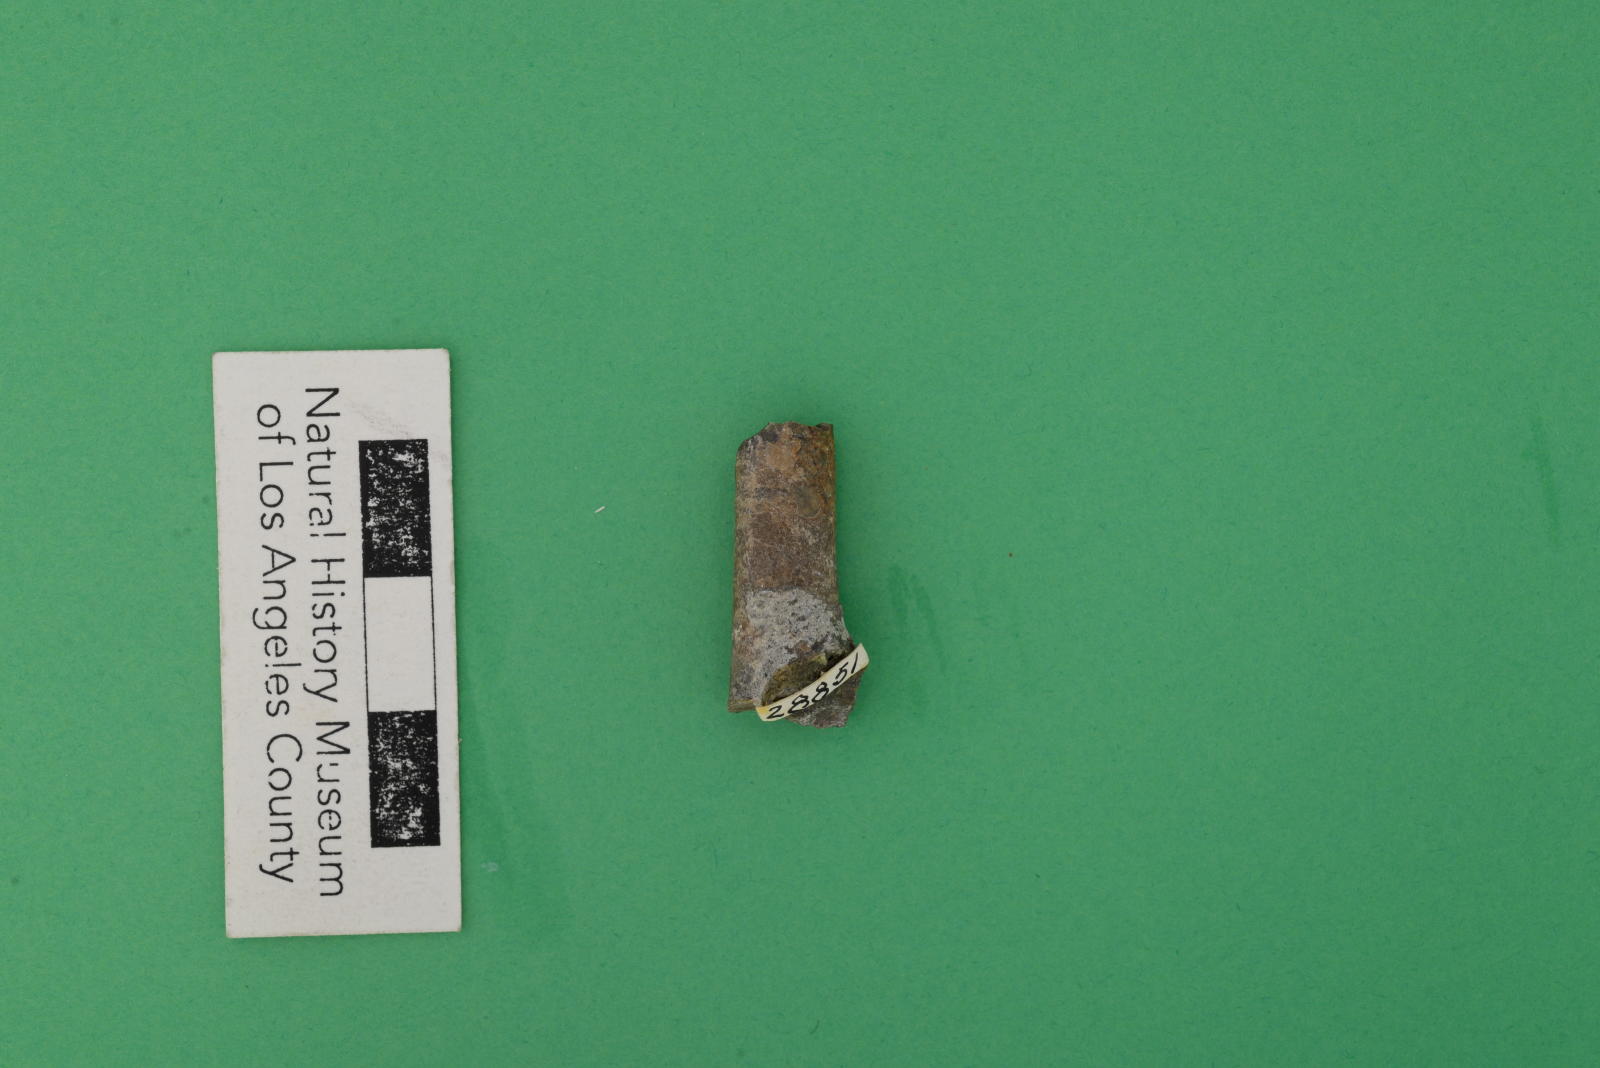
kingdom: Animalia
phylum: Mollusca
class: Cephalopoda
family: Baculitidae
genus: Sciponoceras
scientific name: Sciponoceras
